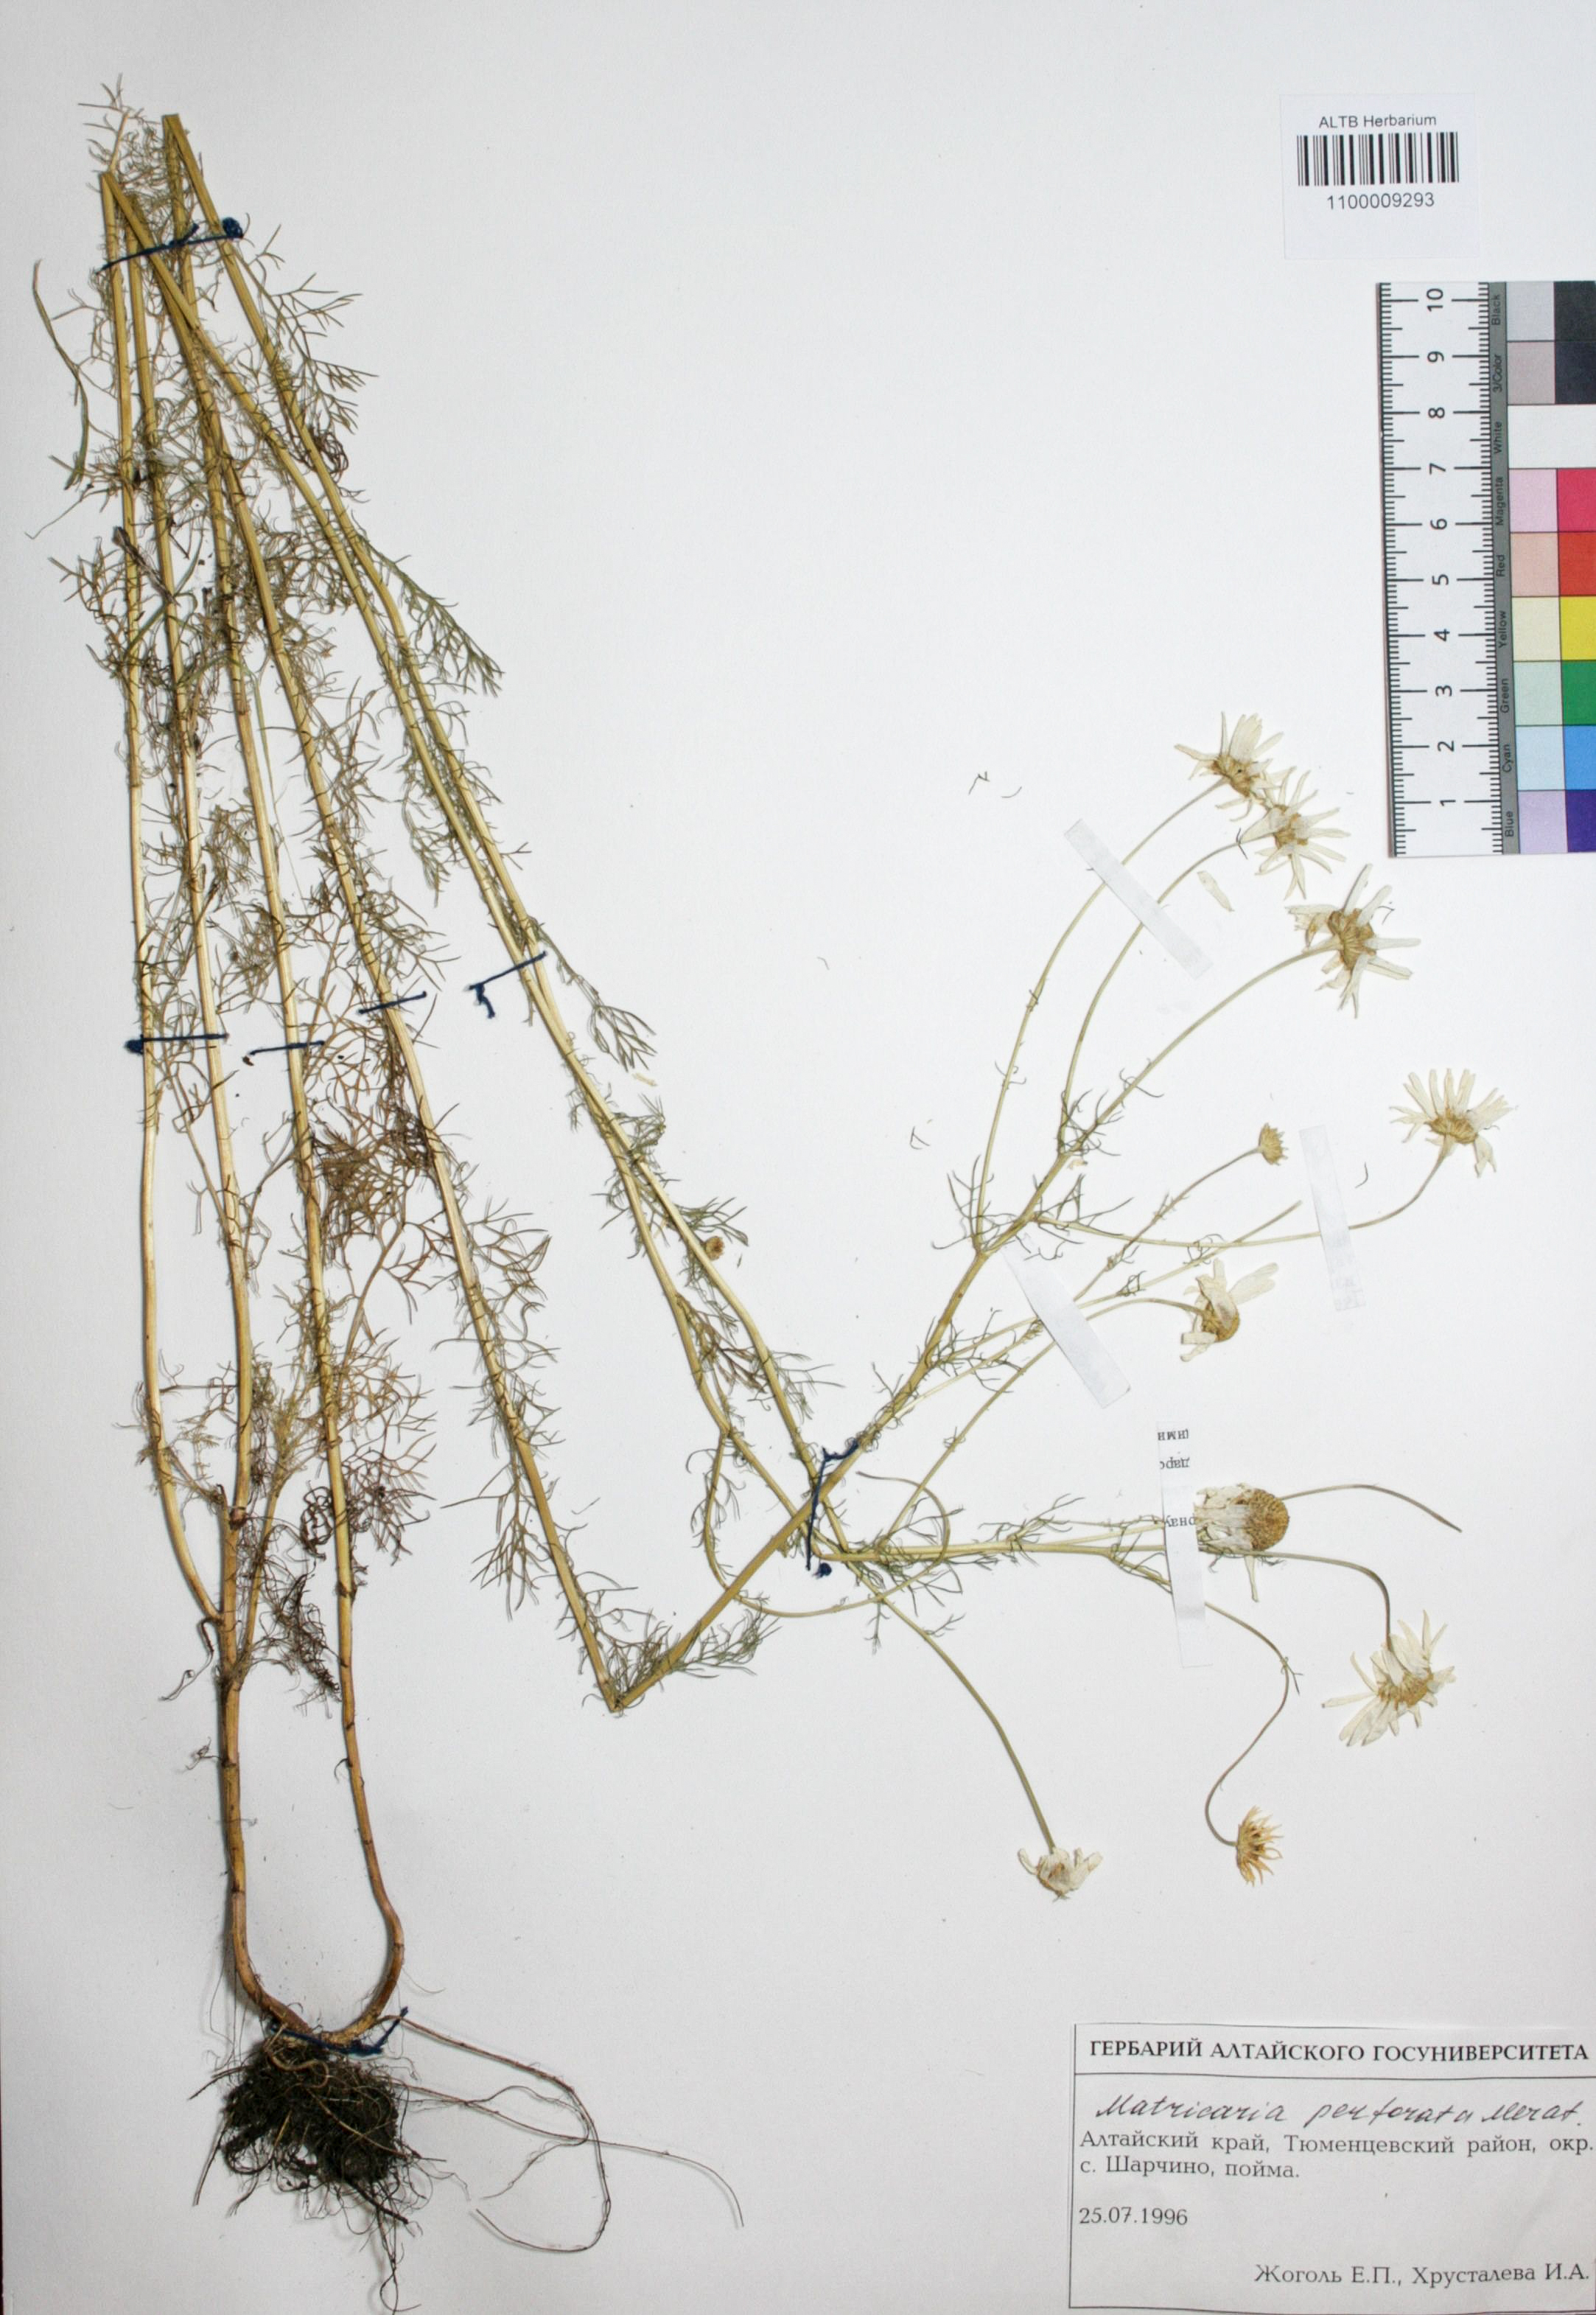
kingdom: Plantae
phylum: Tracheophyta
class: Magnoliopsida
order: Asterales
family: Asteraceae
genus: Tripleurospermum
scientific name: Tripleurospermum inodorum
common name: Scentless mayweed
